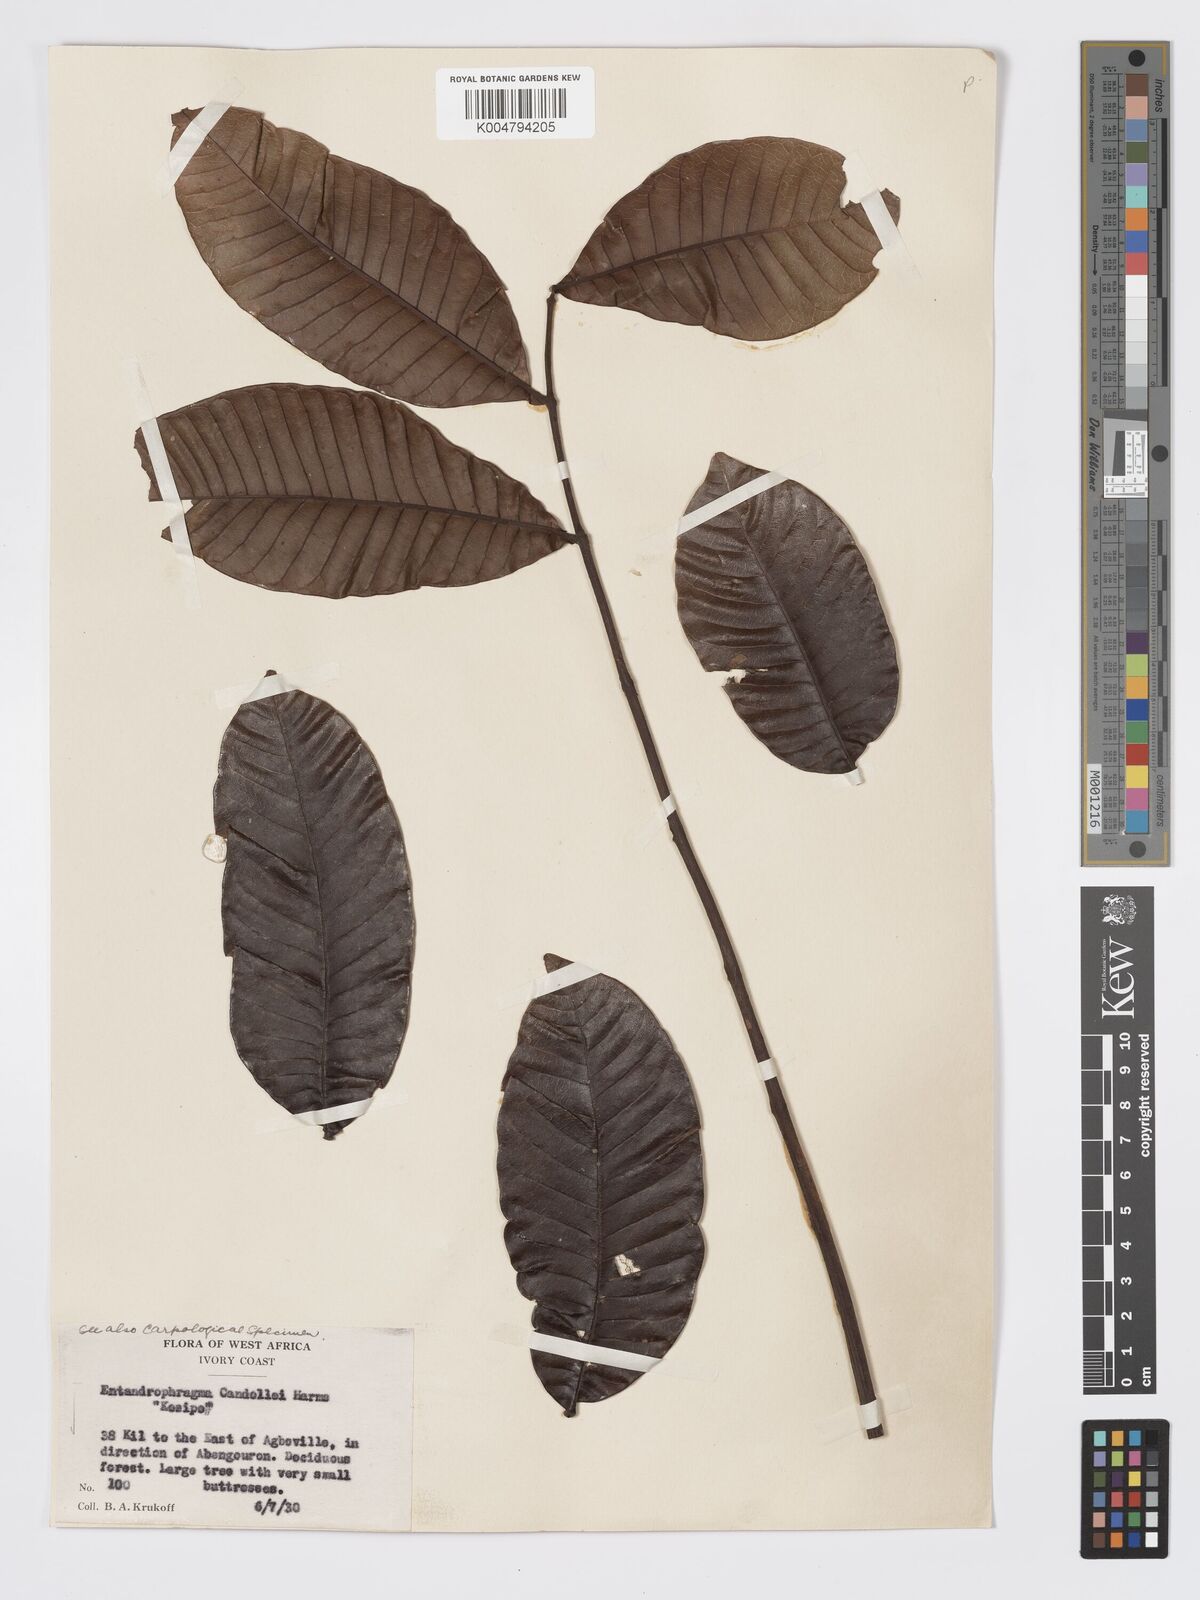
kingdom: Plantae
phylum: Tracheophyta
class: Magnoliopsida
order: Sapindales
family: Meliaceae
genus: Entandrophragma
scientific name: Entandrophragma candollei
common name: Cedar kokoti
